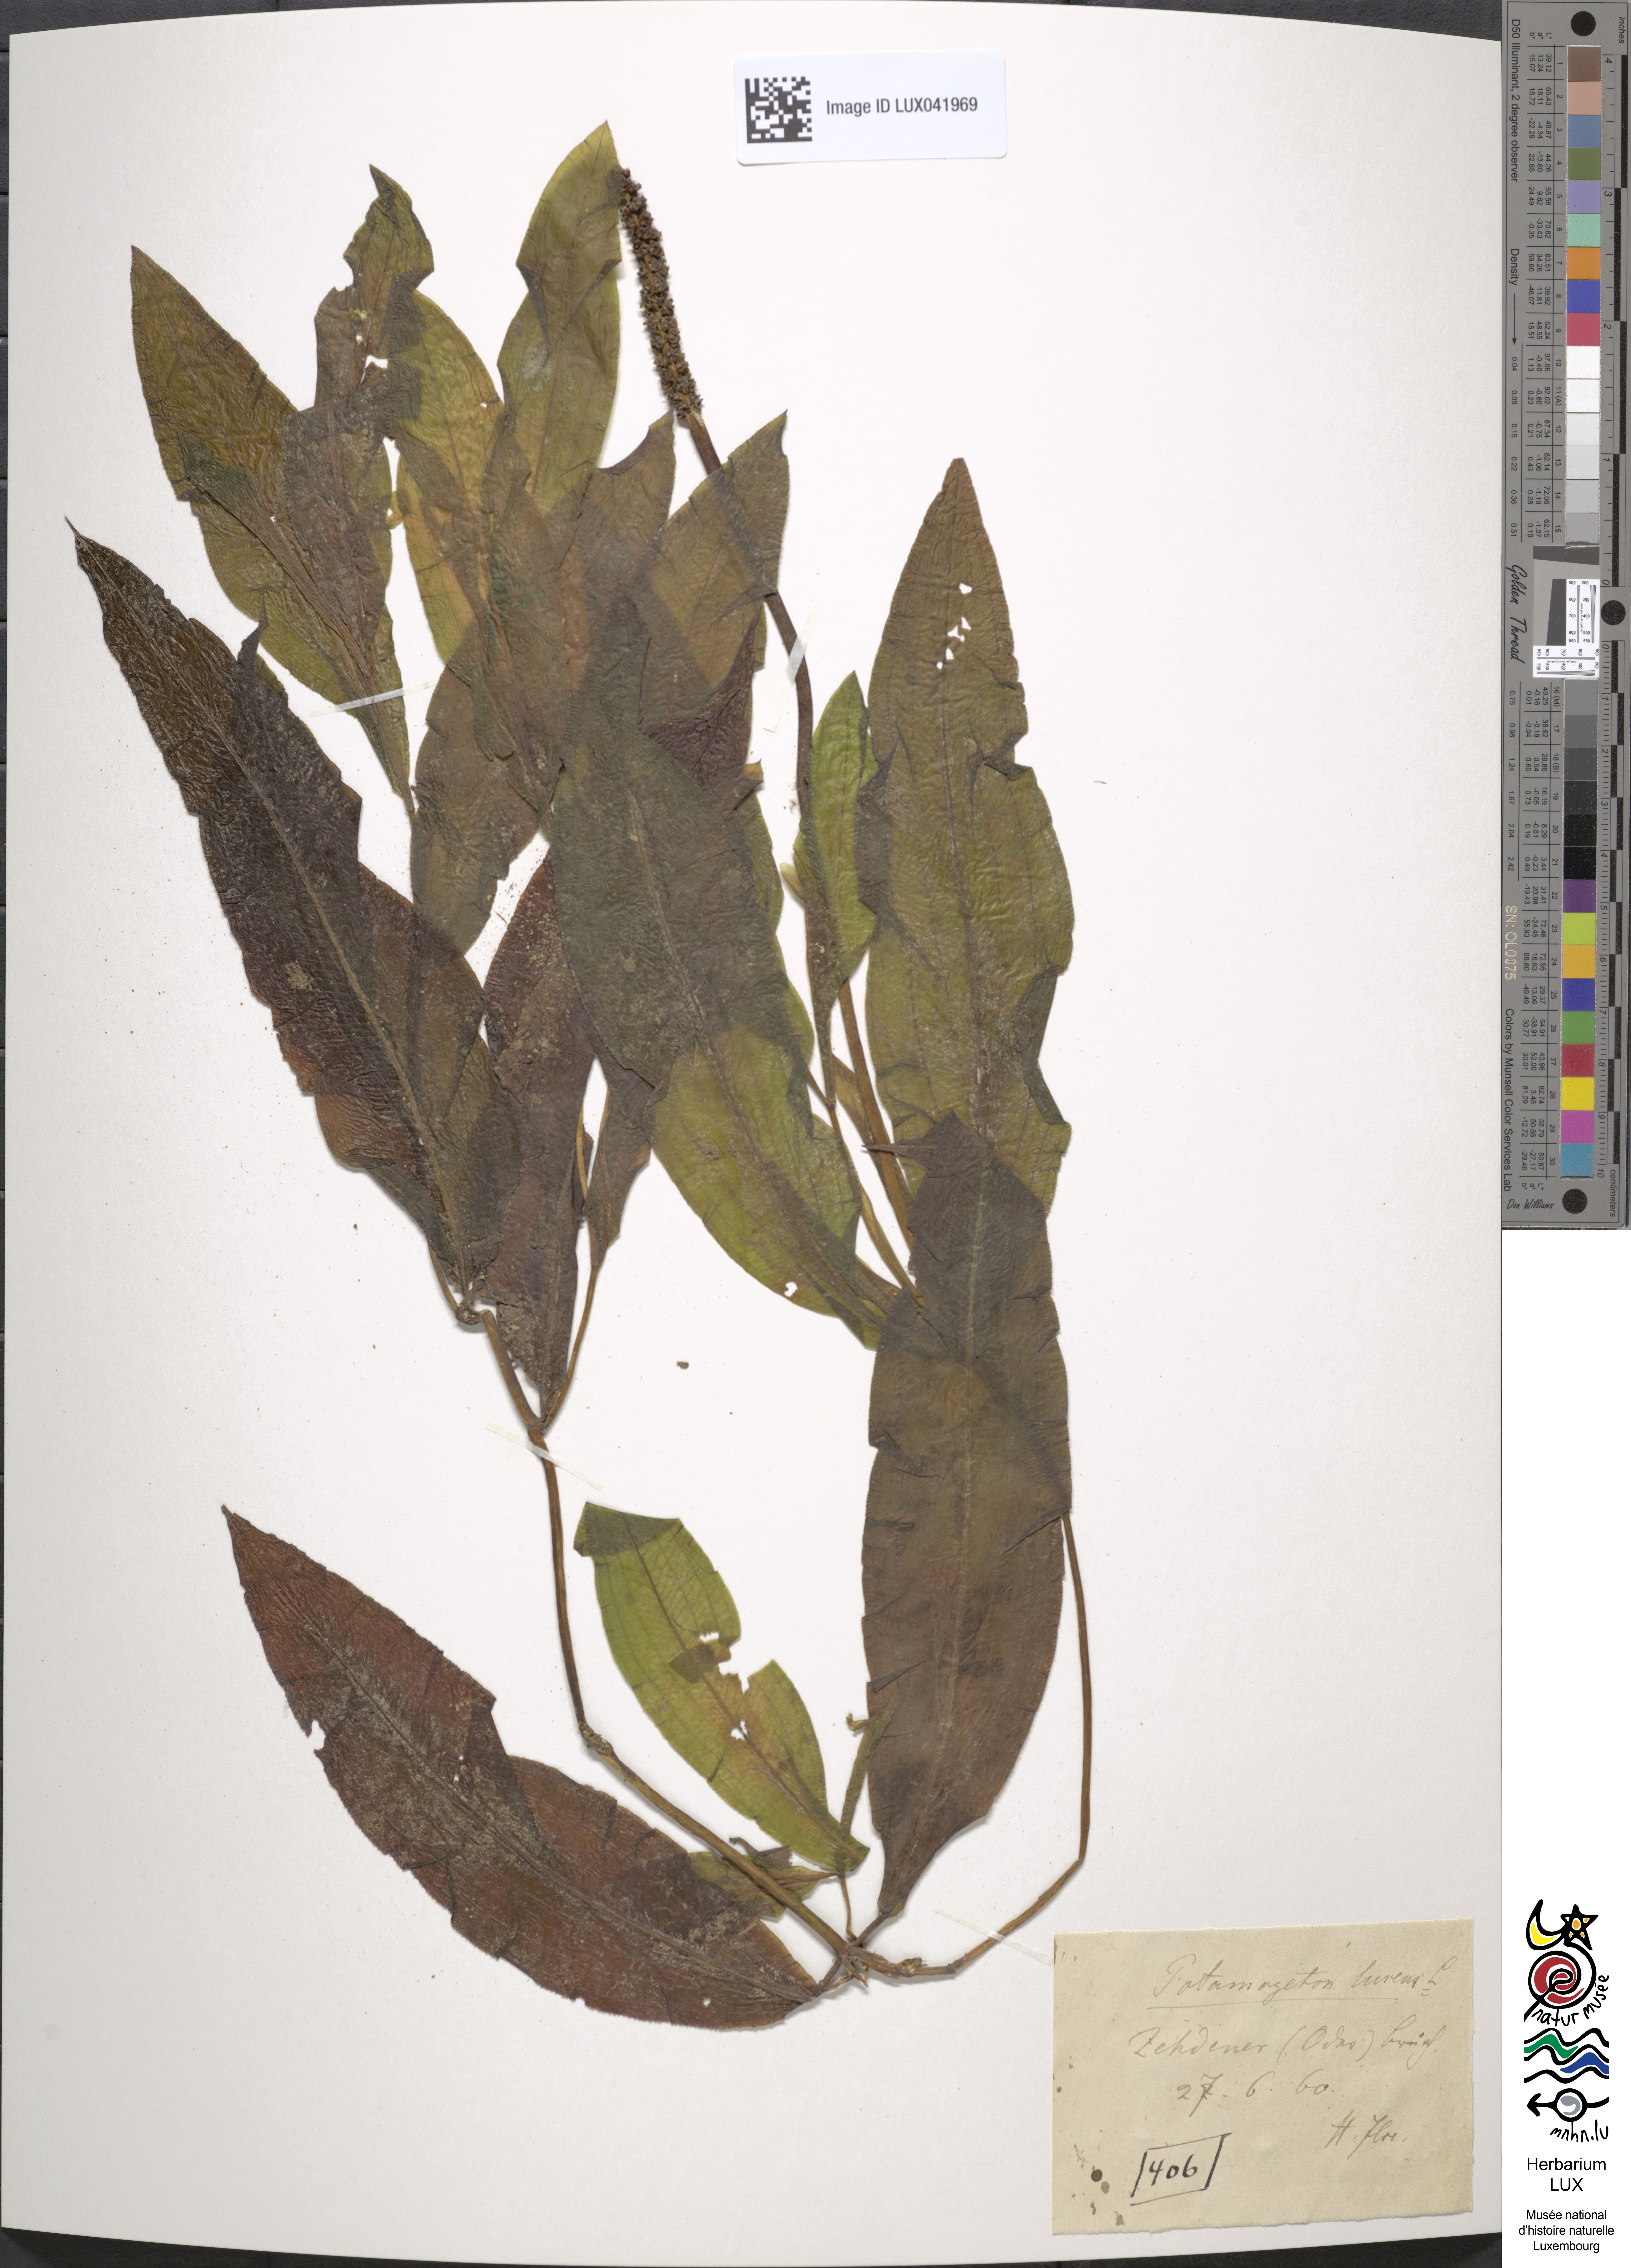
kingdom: Plantae
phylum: Tracheophyta
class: Liliopsida
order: Alismatales
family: Potamogetonaceae
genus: Potamogeton
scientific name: Potamogeton lucens
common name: Shining pondweed
